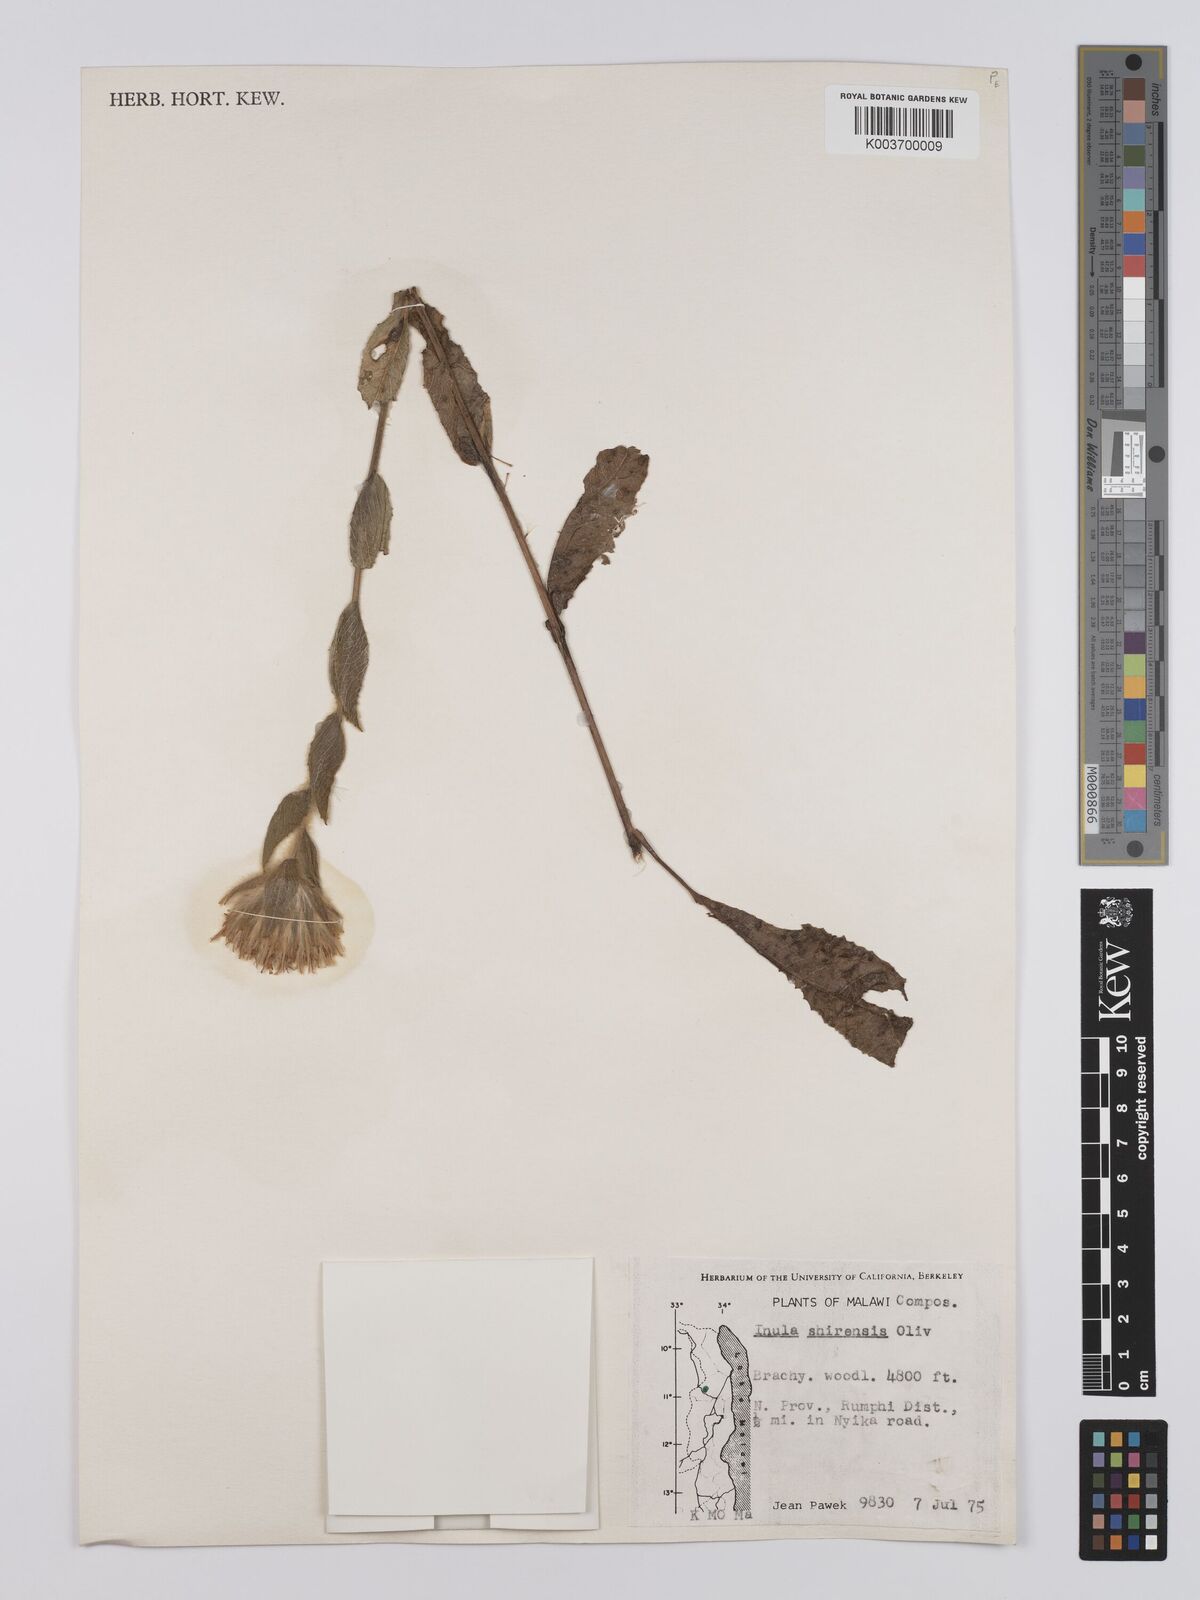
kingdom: Plantae
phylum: Tracheophyta
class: Magnoliopsida
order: Asterales
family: Asteraceae
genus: Monactinocephalus
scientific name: Monactinocephalus shirensis
